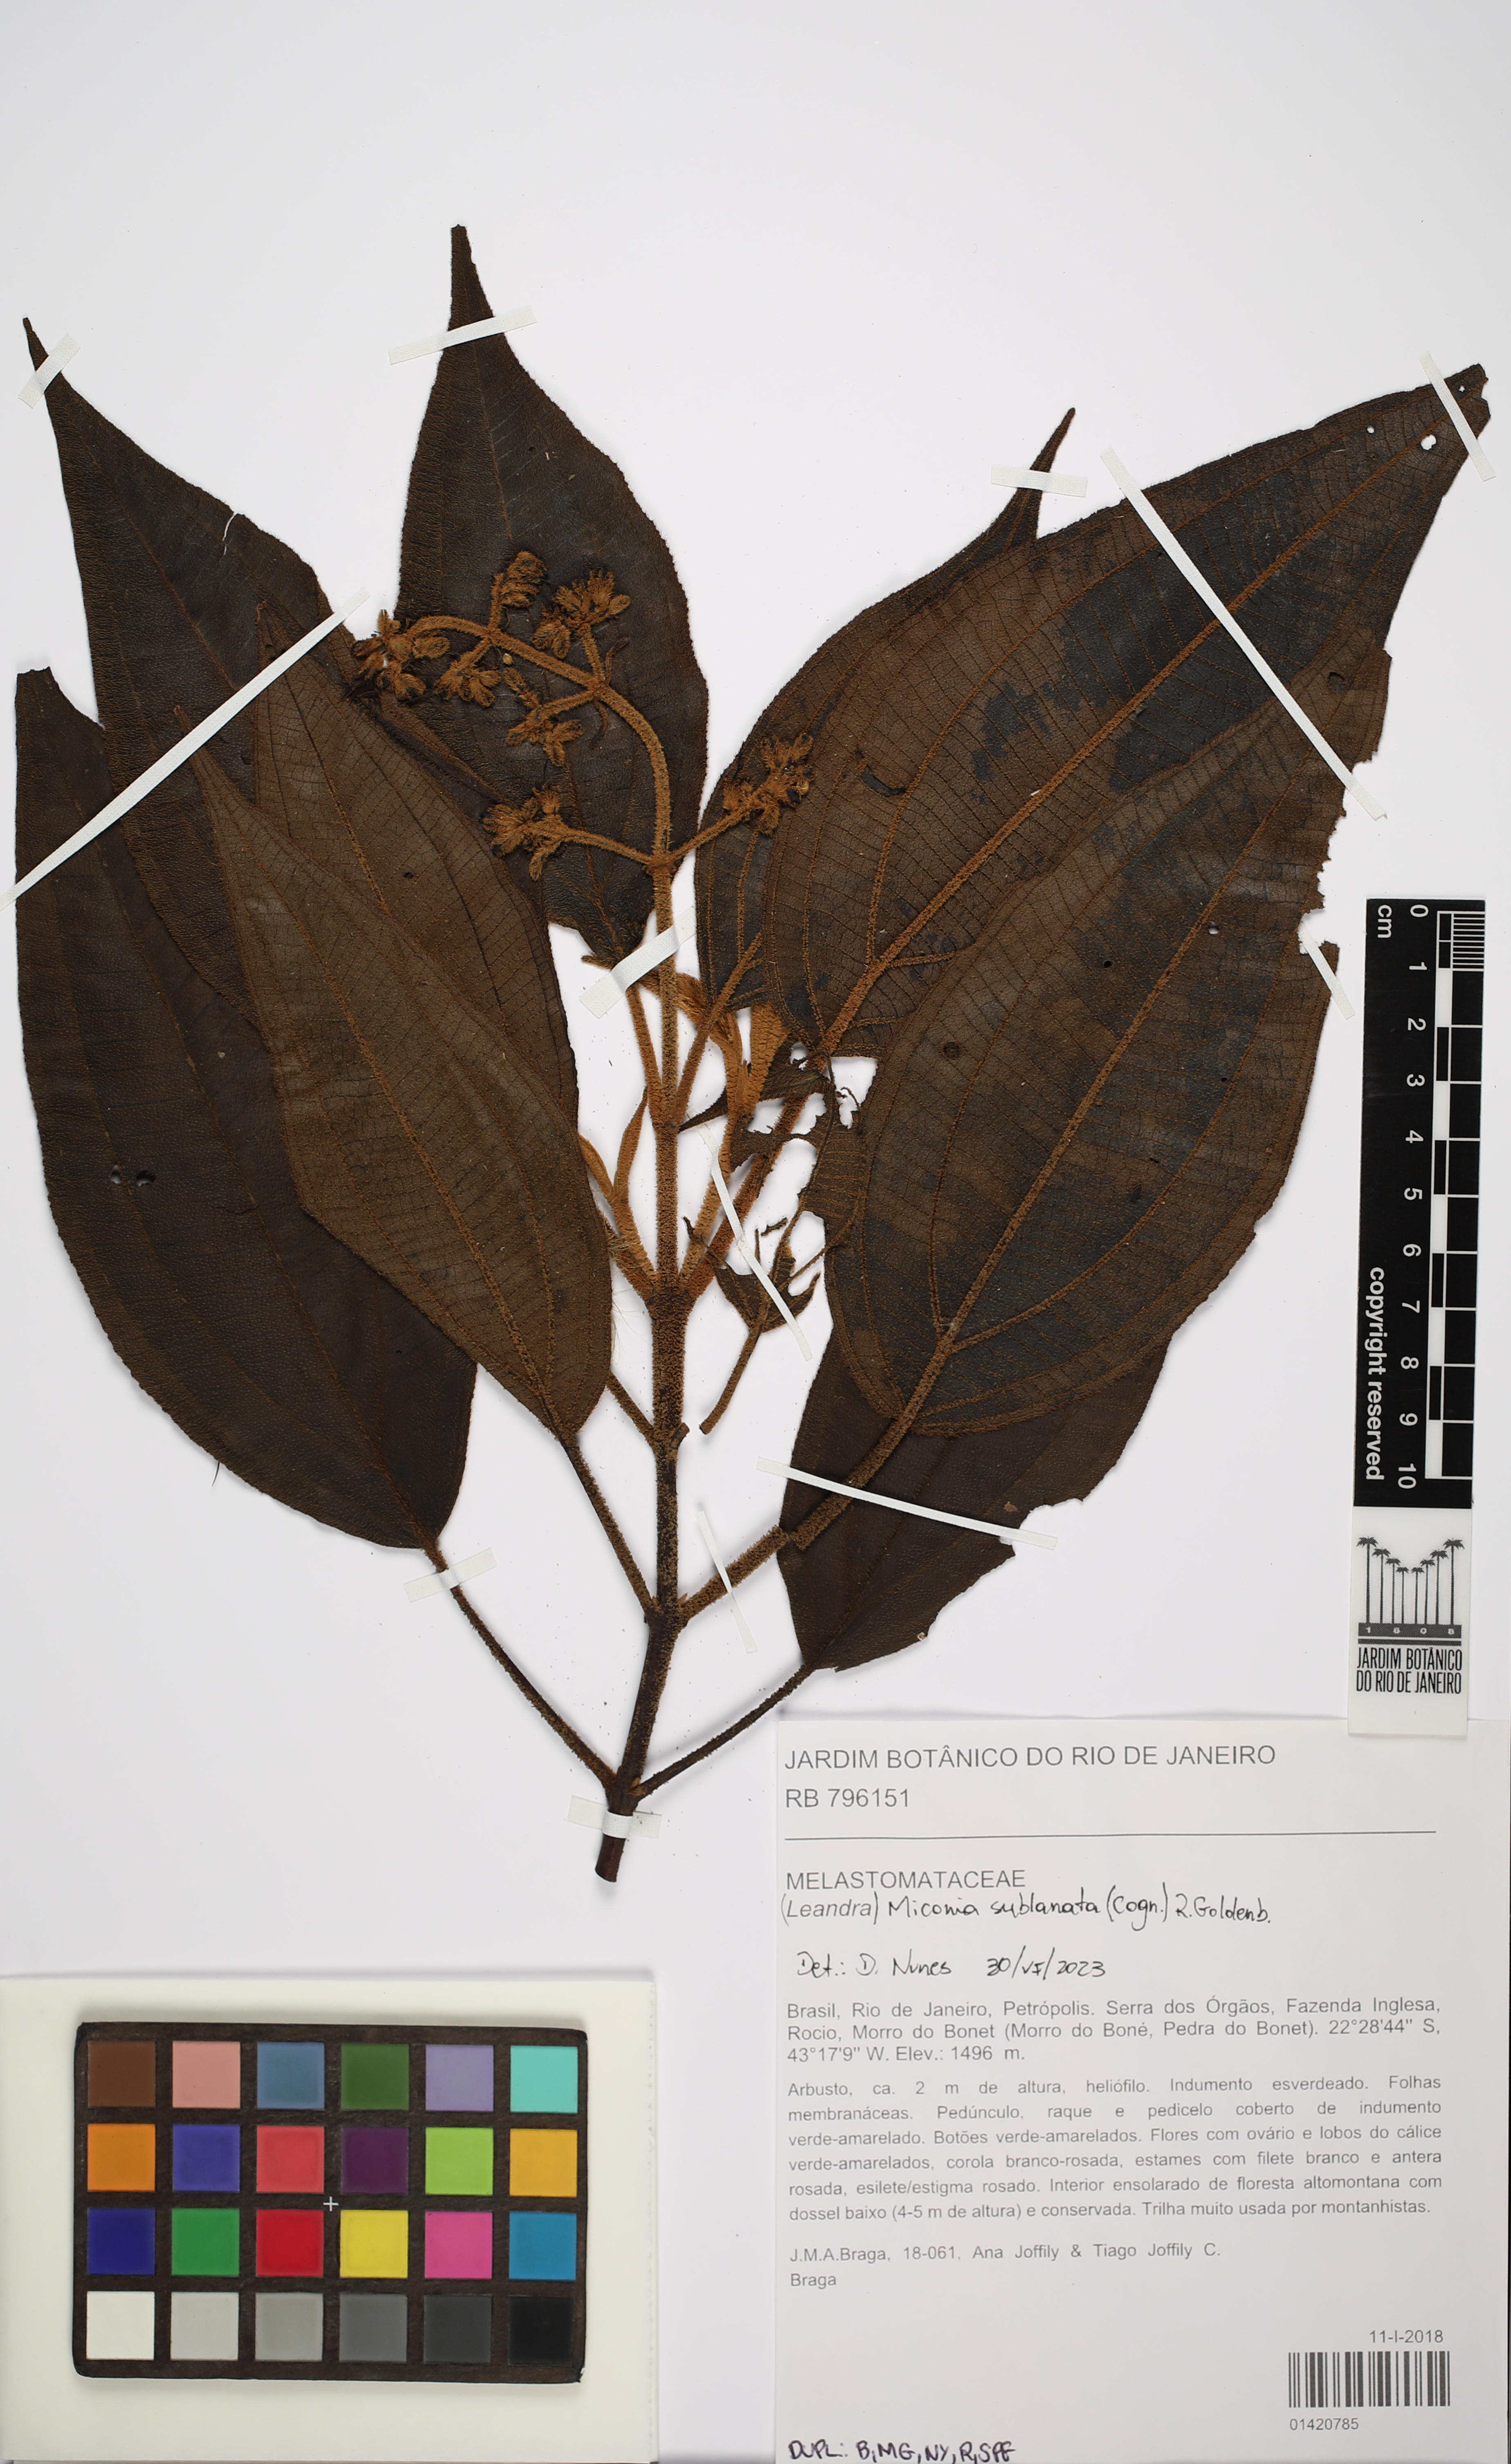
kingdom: Plantae
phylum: Tracheophyta
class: Magnoliopsida
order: Myrtales
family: Melastomataceae
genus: Miconia
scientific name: Miconia sublanata
